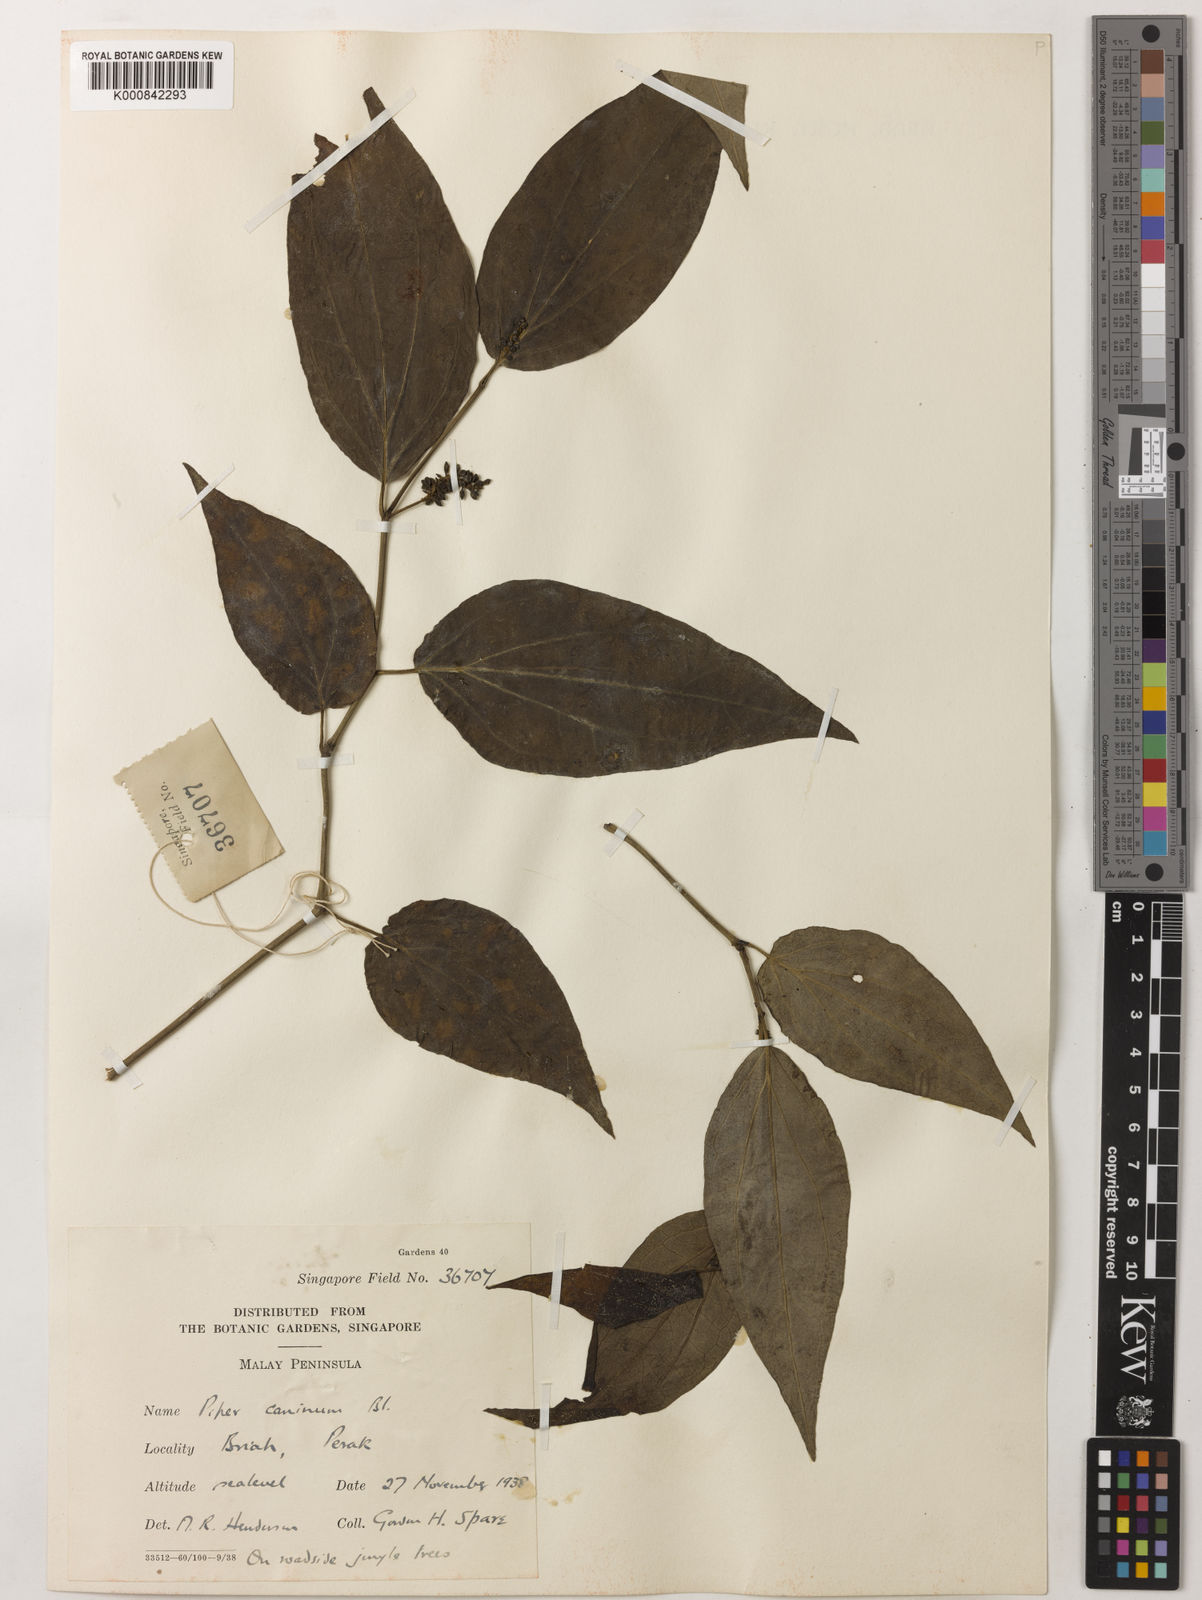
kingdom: Plantae
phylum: Tracheophyta
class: Magnoliopsida
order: Piperales
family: Piperaceae
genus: Piper
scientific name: Piper lanatum
